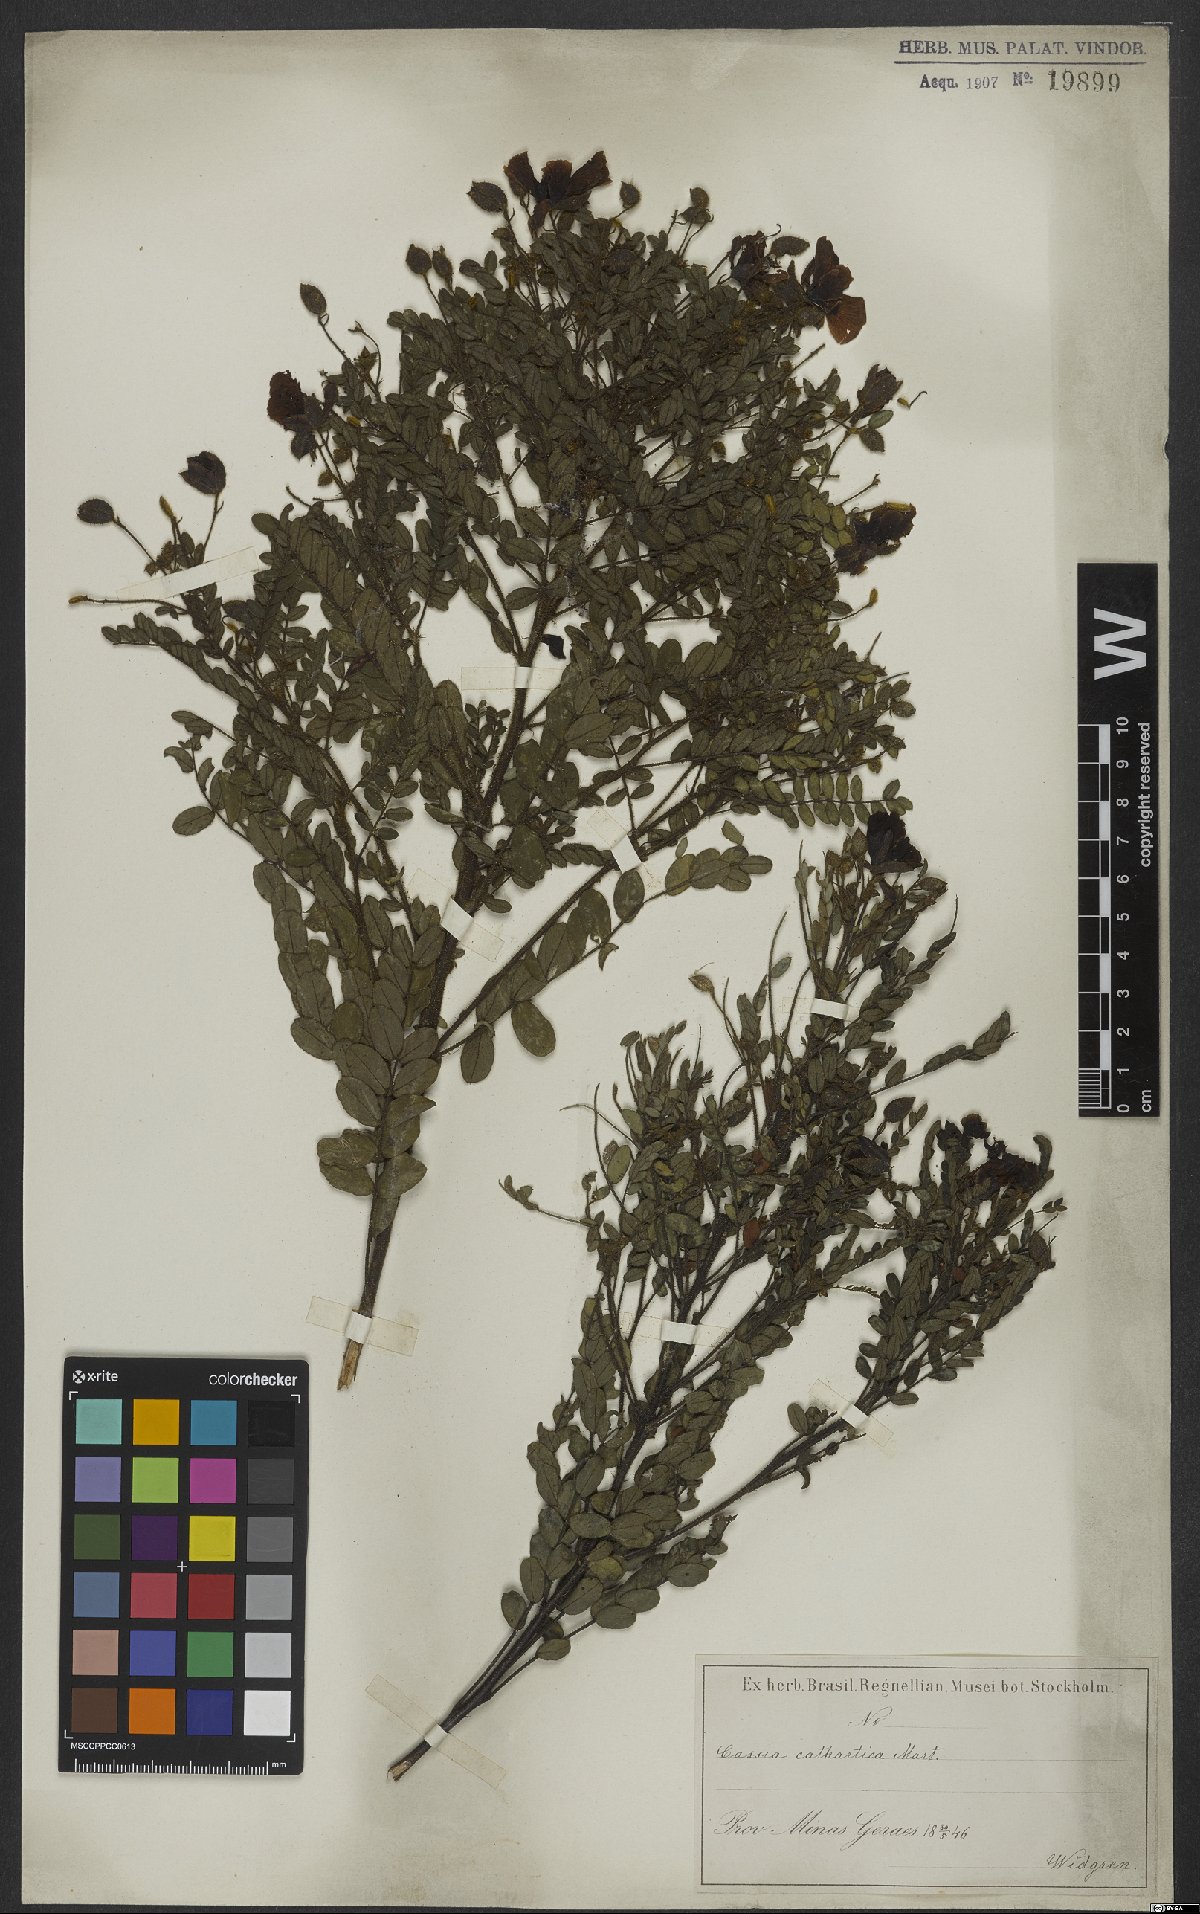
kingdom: Plantae
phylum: Tracheophyta
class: Magnoliopsida
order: Fabales
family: Fabaceae
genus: Chamaecrista
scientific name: Chamaecrista cathartica
